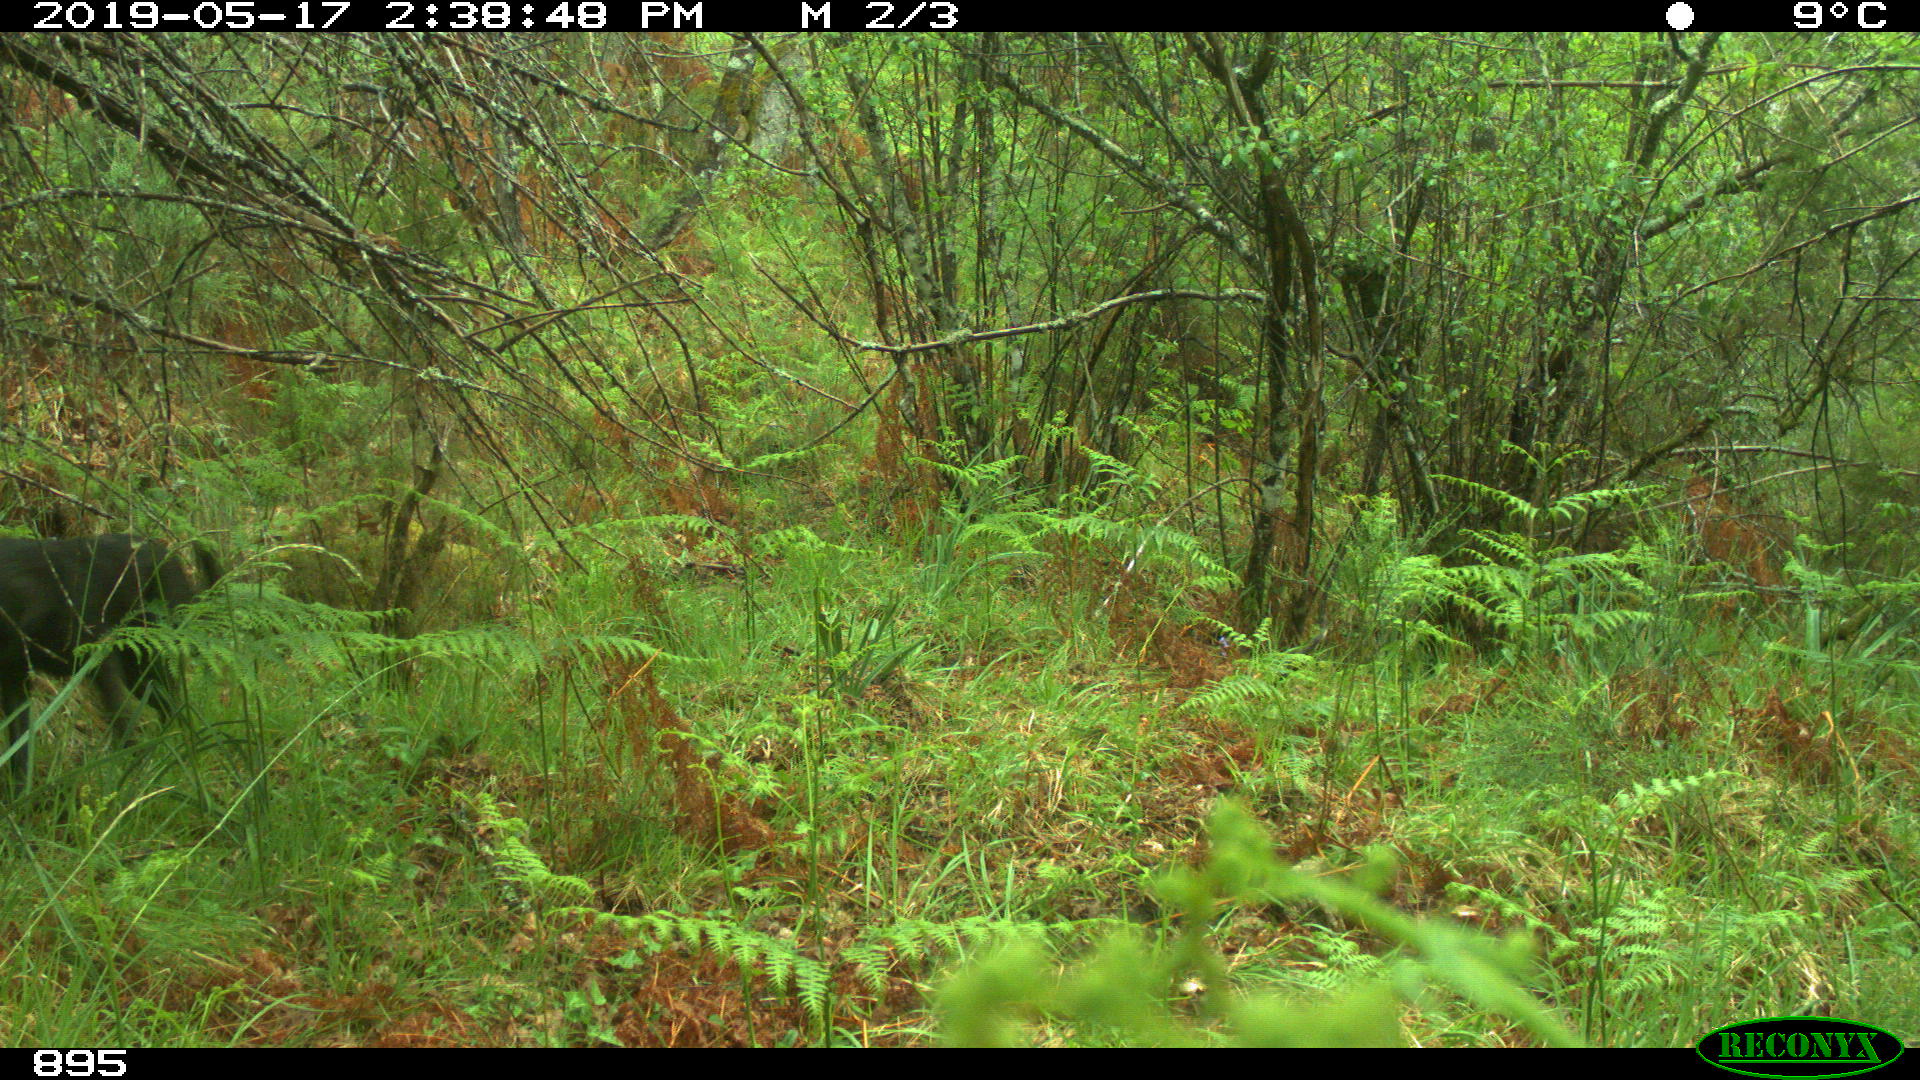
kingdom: Animalia
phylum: Chordata
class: Mammalia
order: Carnivora
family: Canidae
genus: Canis
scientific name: Canis lupus
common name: Gray wolf
